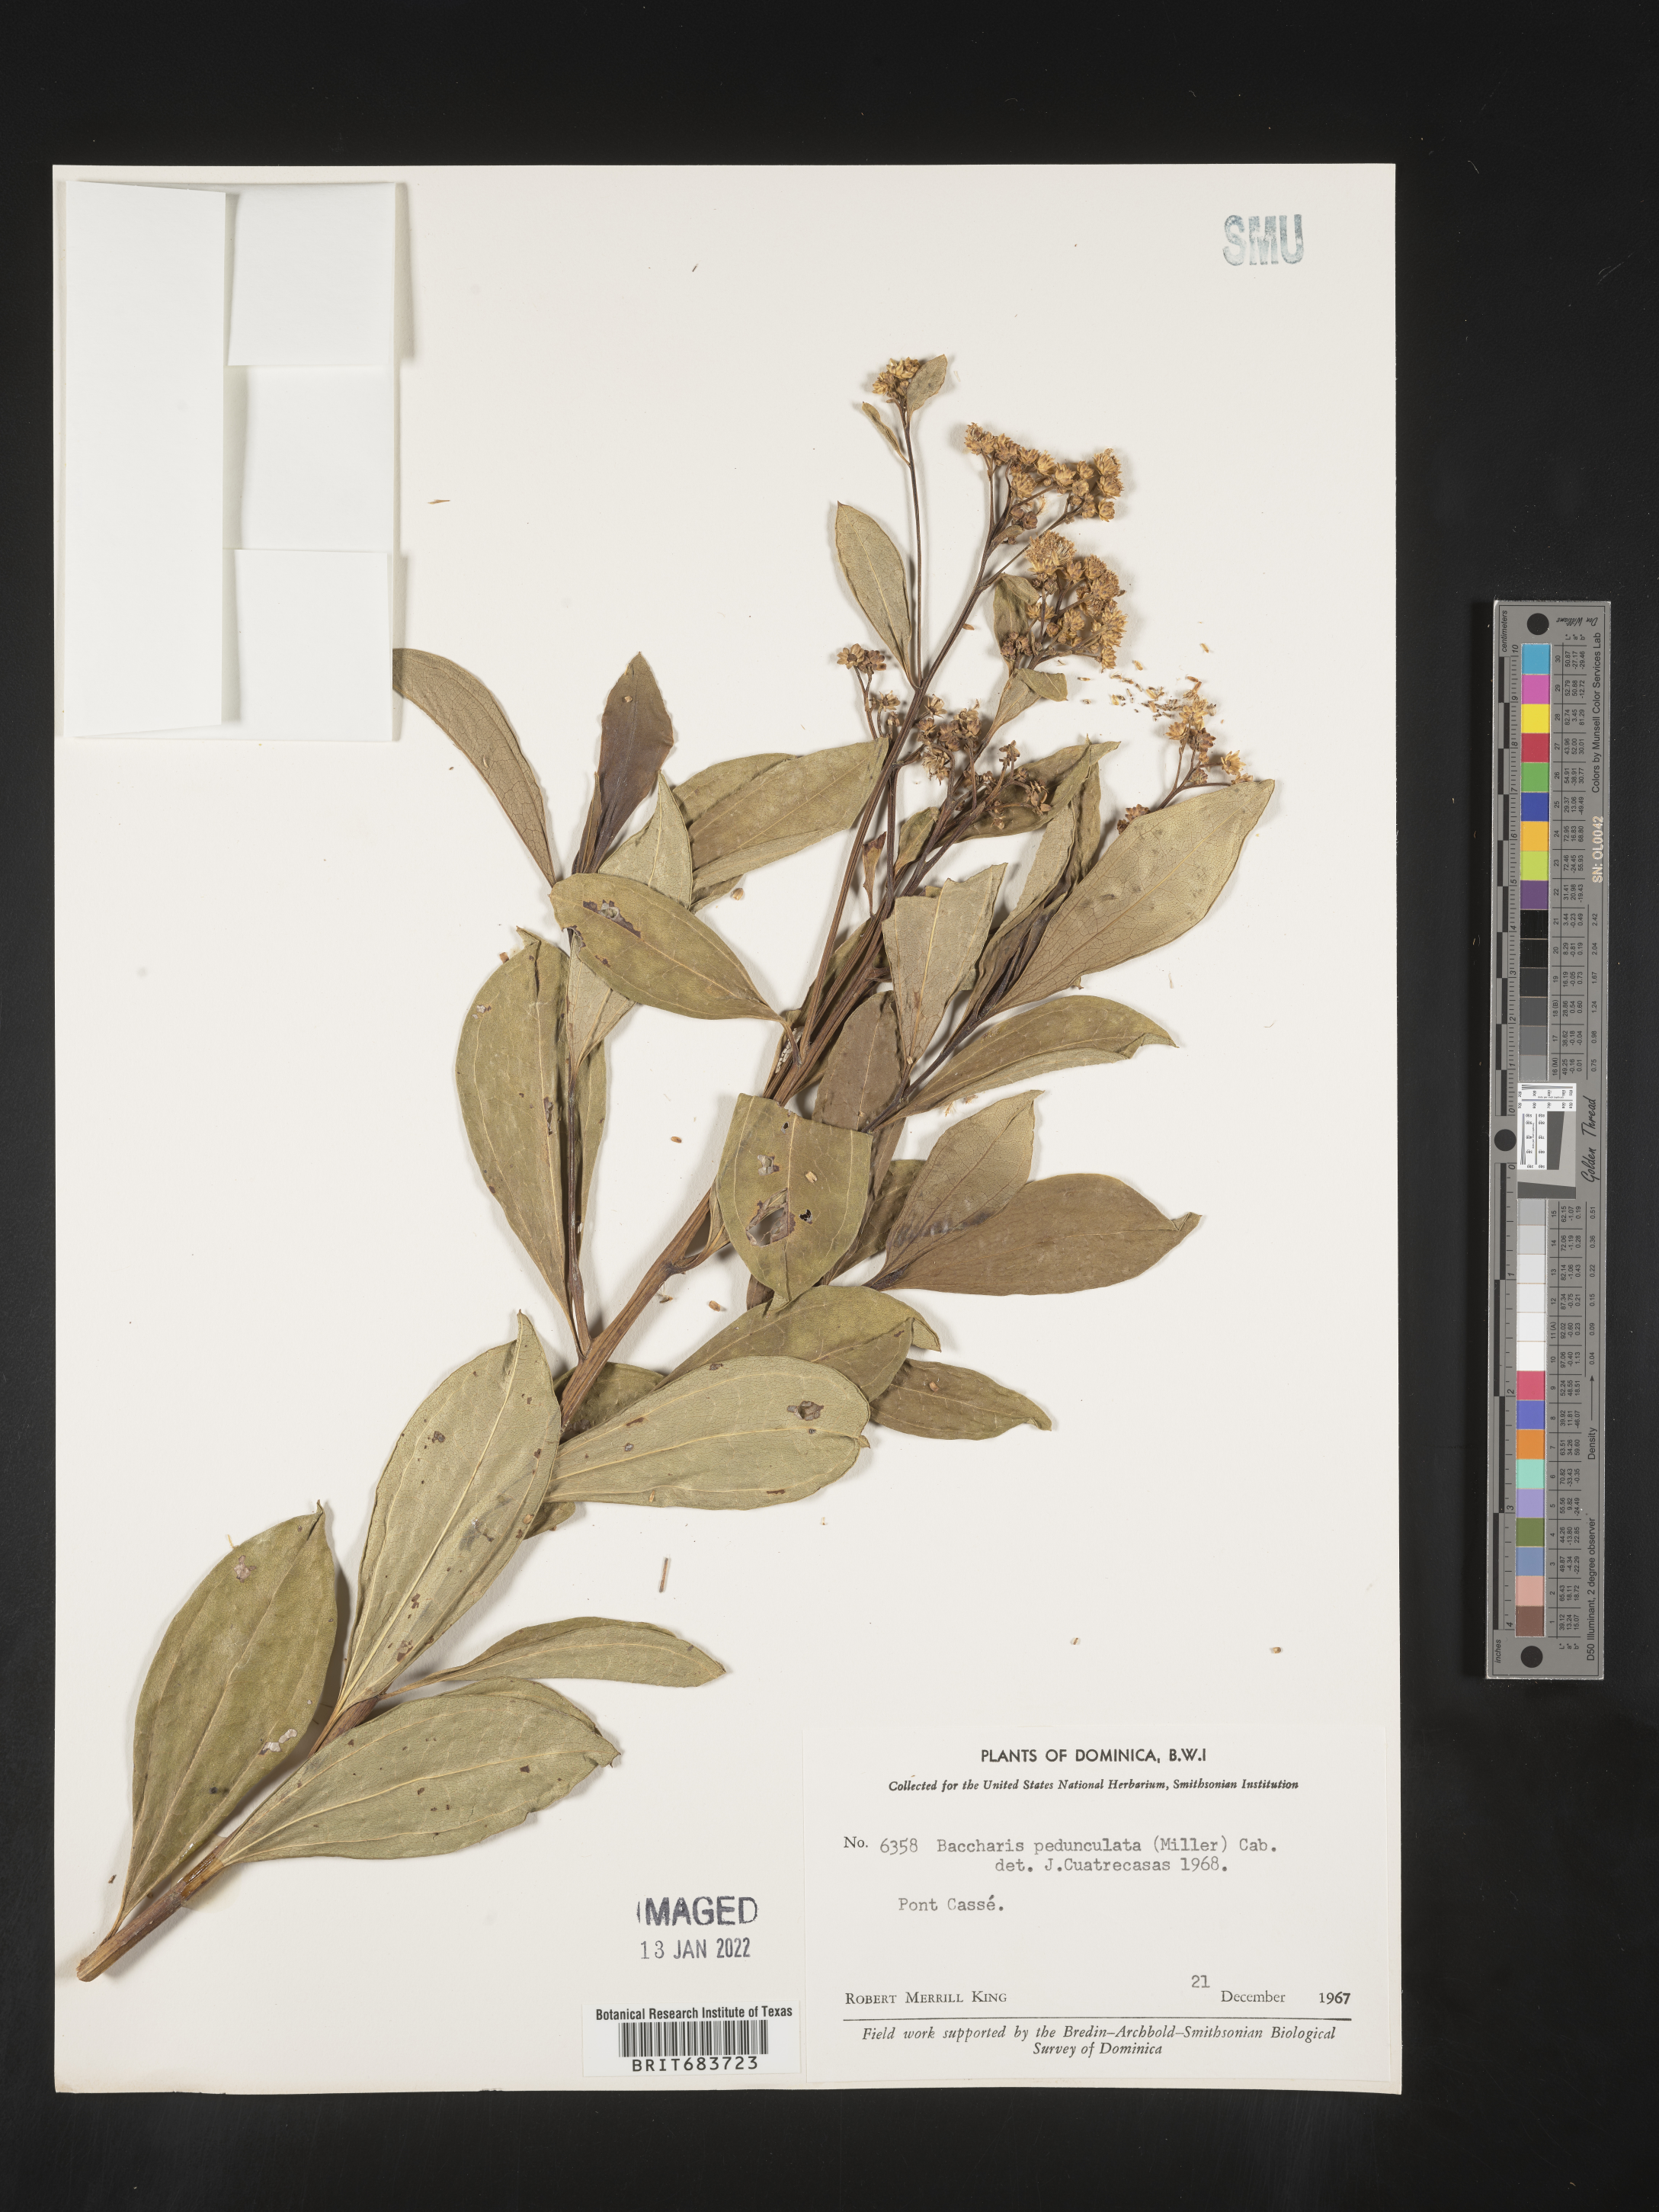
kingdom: Plantae
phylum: Tracheophyta
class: Magnoliopsida
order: Asterales
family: Asteraceae
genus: Baccharis
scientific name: Baccharis
